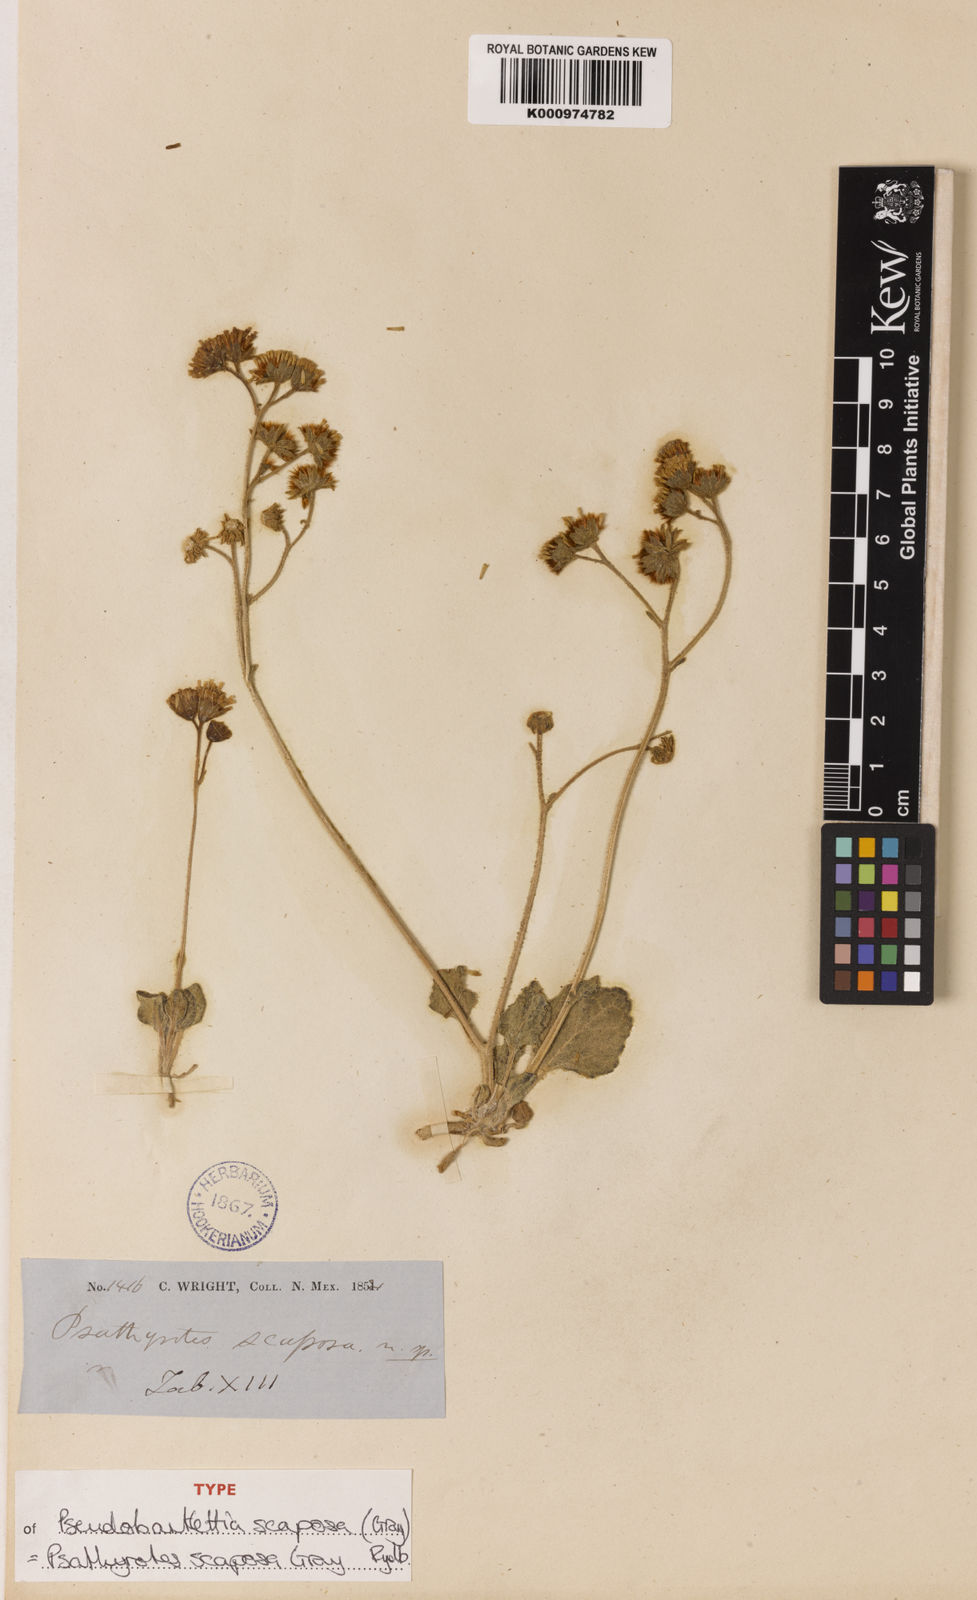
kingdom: Plantae
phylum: Tracheophyta
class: Magnoliopsida
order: Asterales
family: Asteraceae
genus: Psathyrotopsis
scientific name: Psathyrotopsis scaposa
